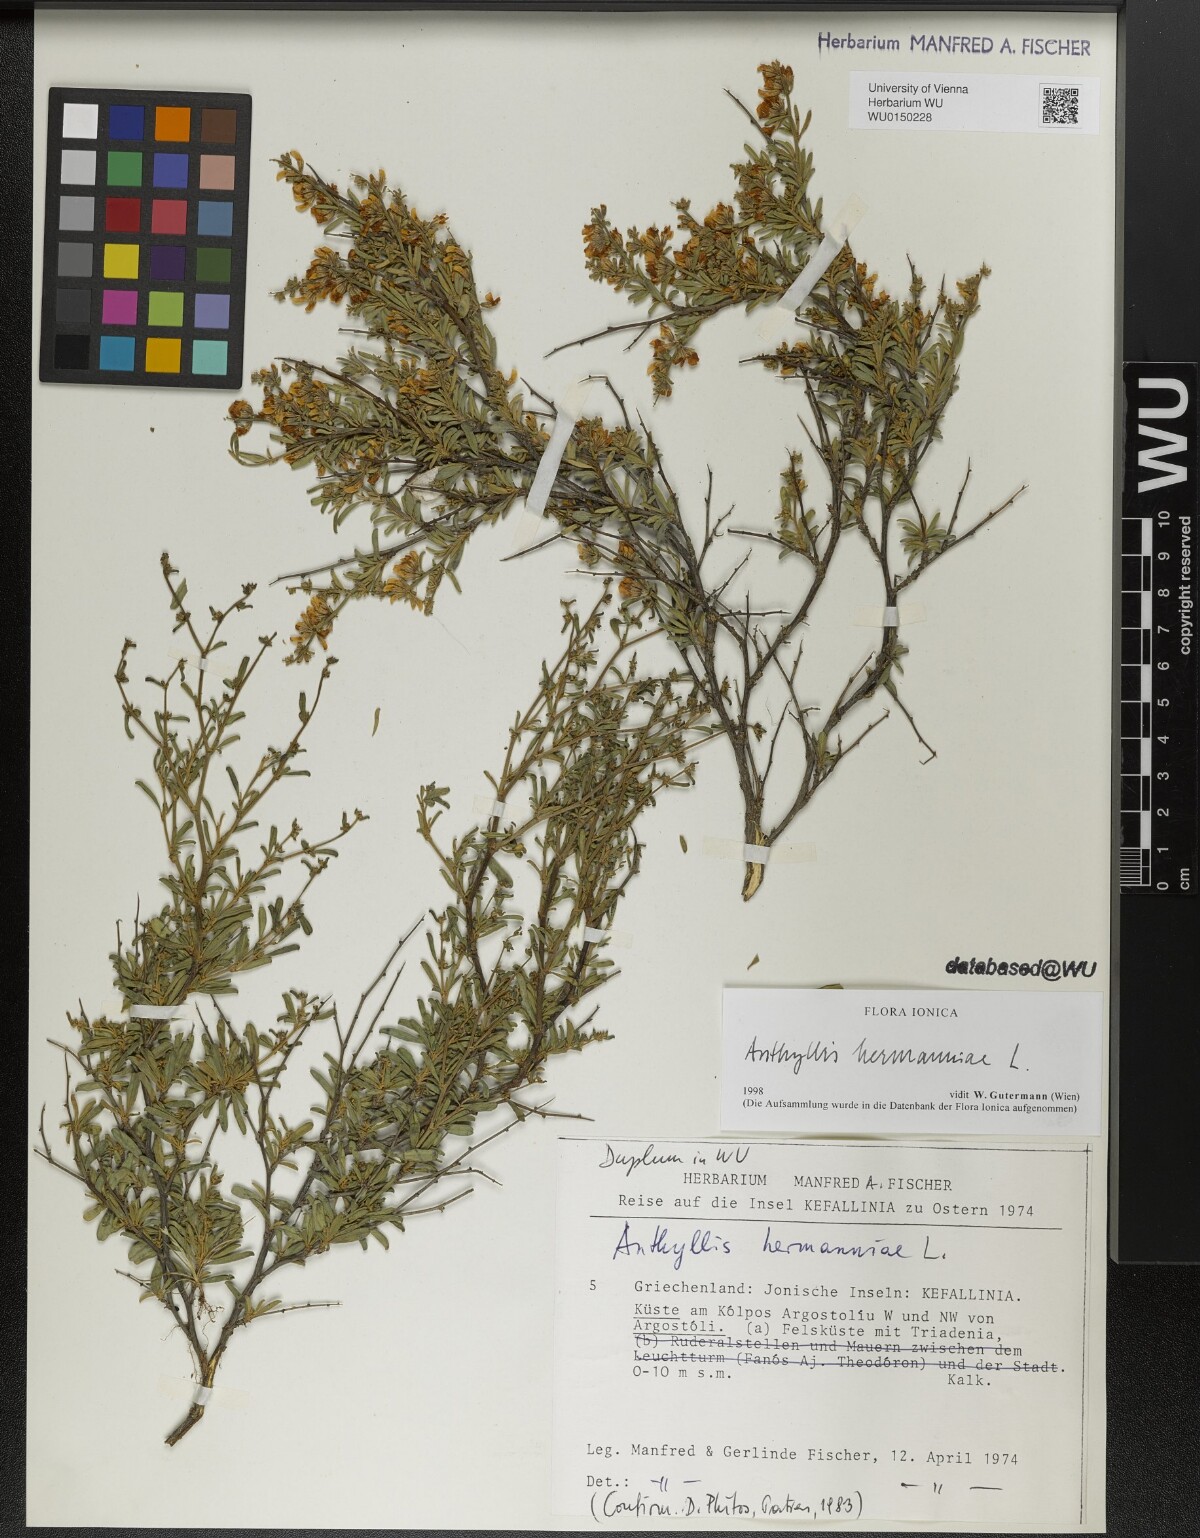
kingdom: Plantae
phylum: Tracheophyta
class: Magnoliopsida
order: Fabales
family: Fabaceae
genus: Anthyllis
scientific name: Anthyllis hermanniae
